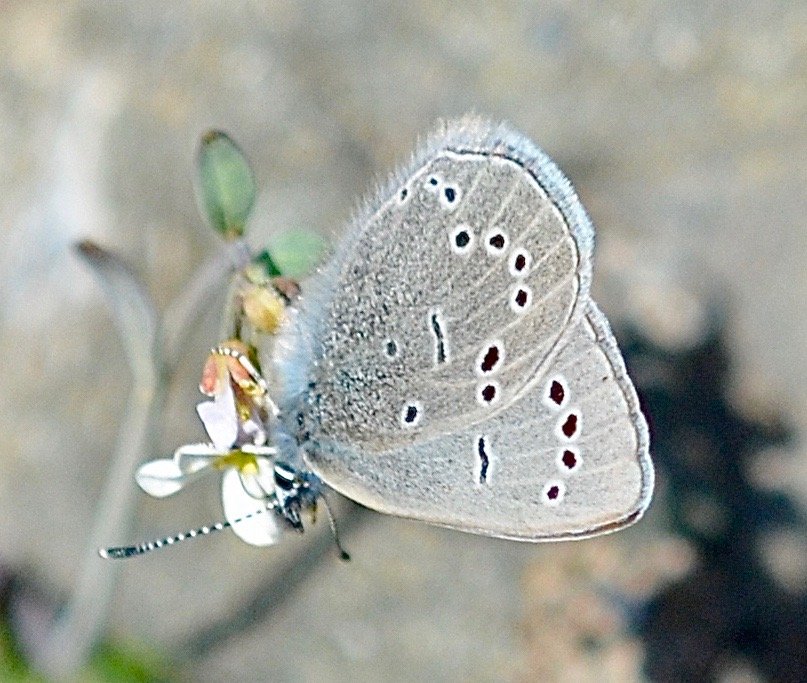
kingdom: Animalia
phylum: Arthropoda
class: Insecta
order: Lepidoptera
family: Lycaenidae
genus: Glaucopsyche
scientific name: Glaucopsyche lygdamus
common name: Silvery Blue
